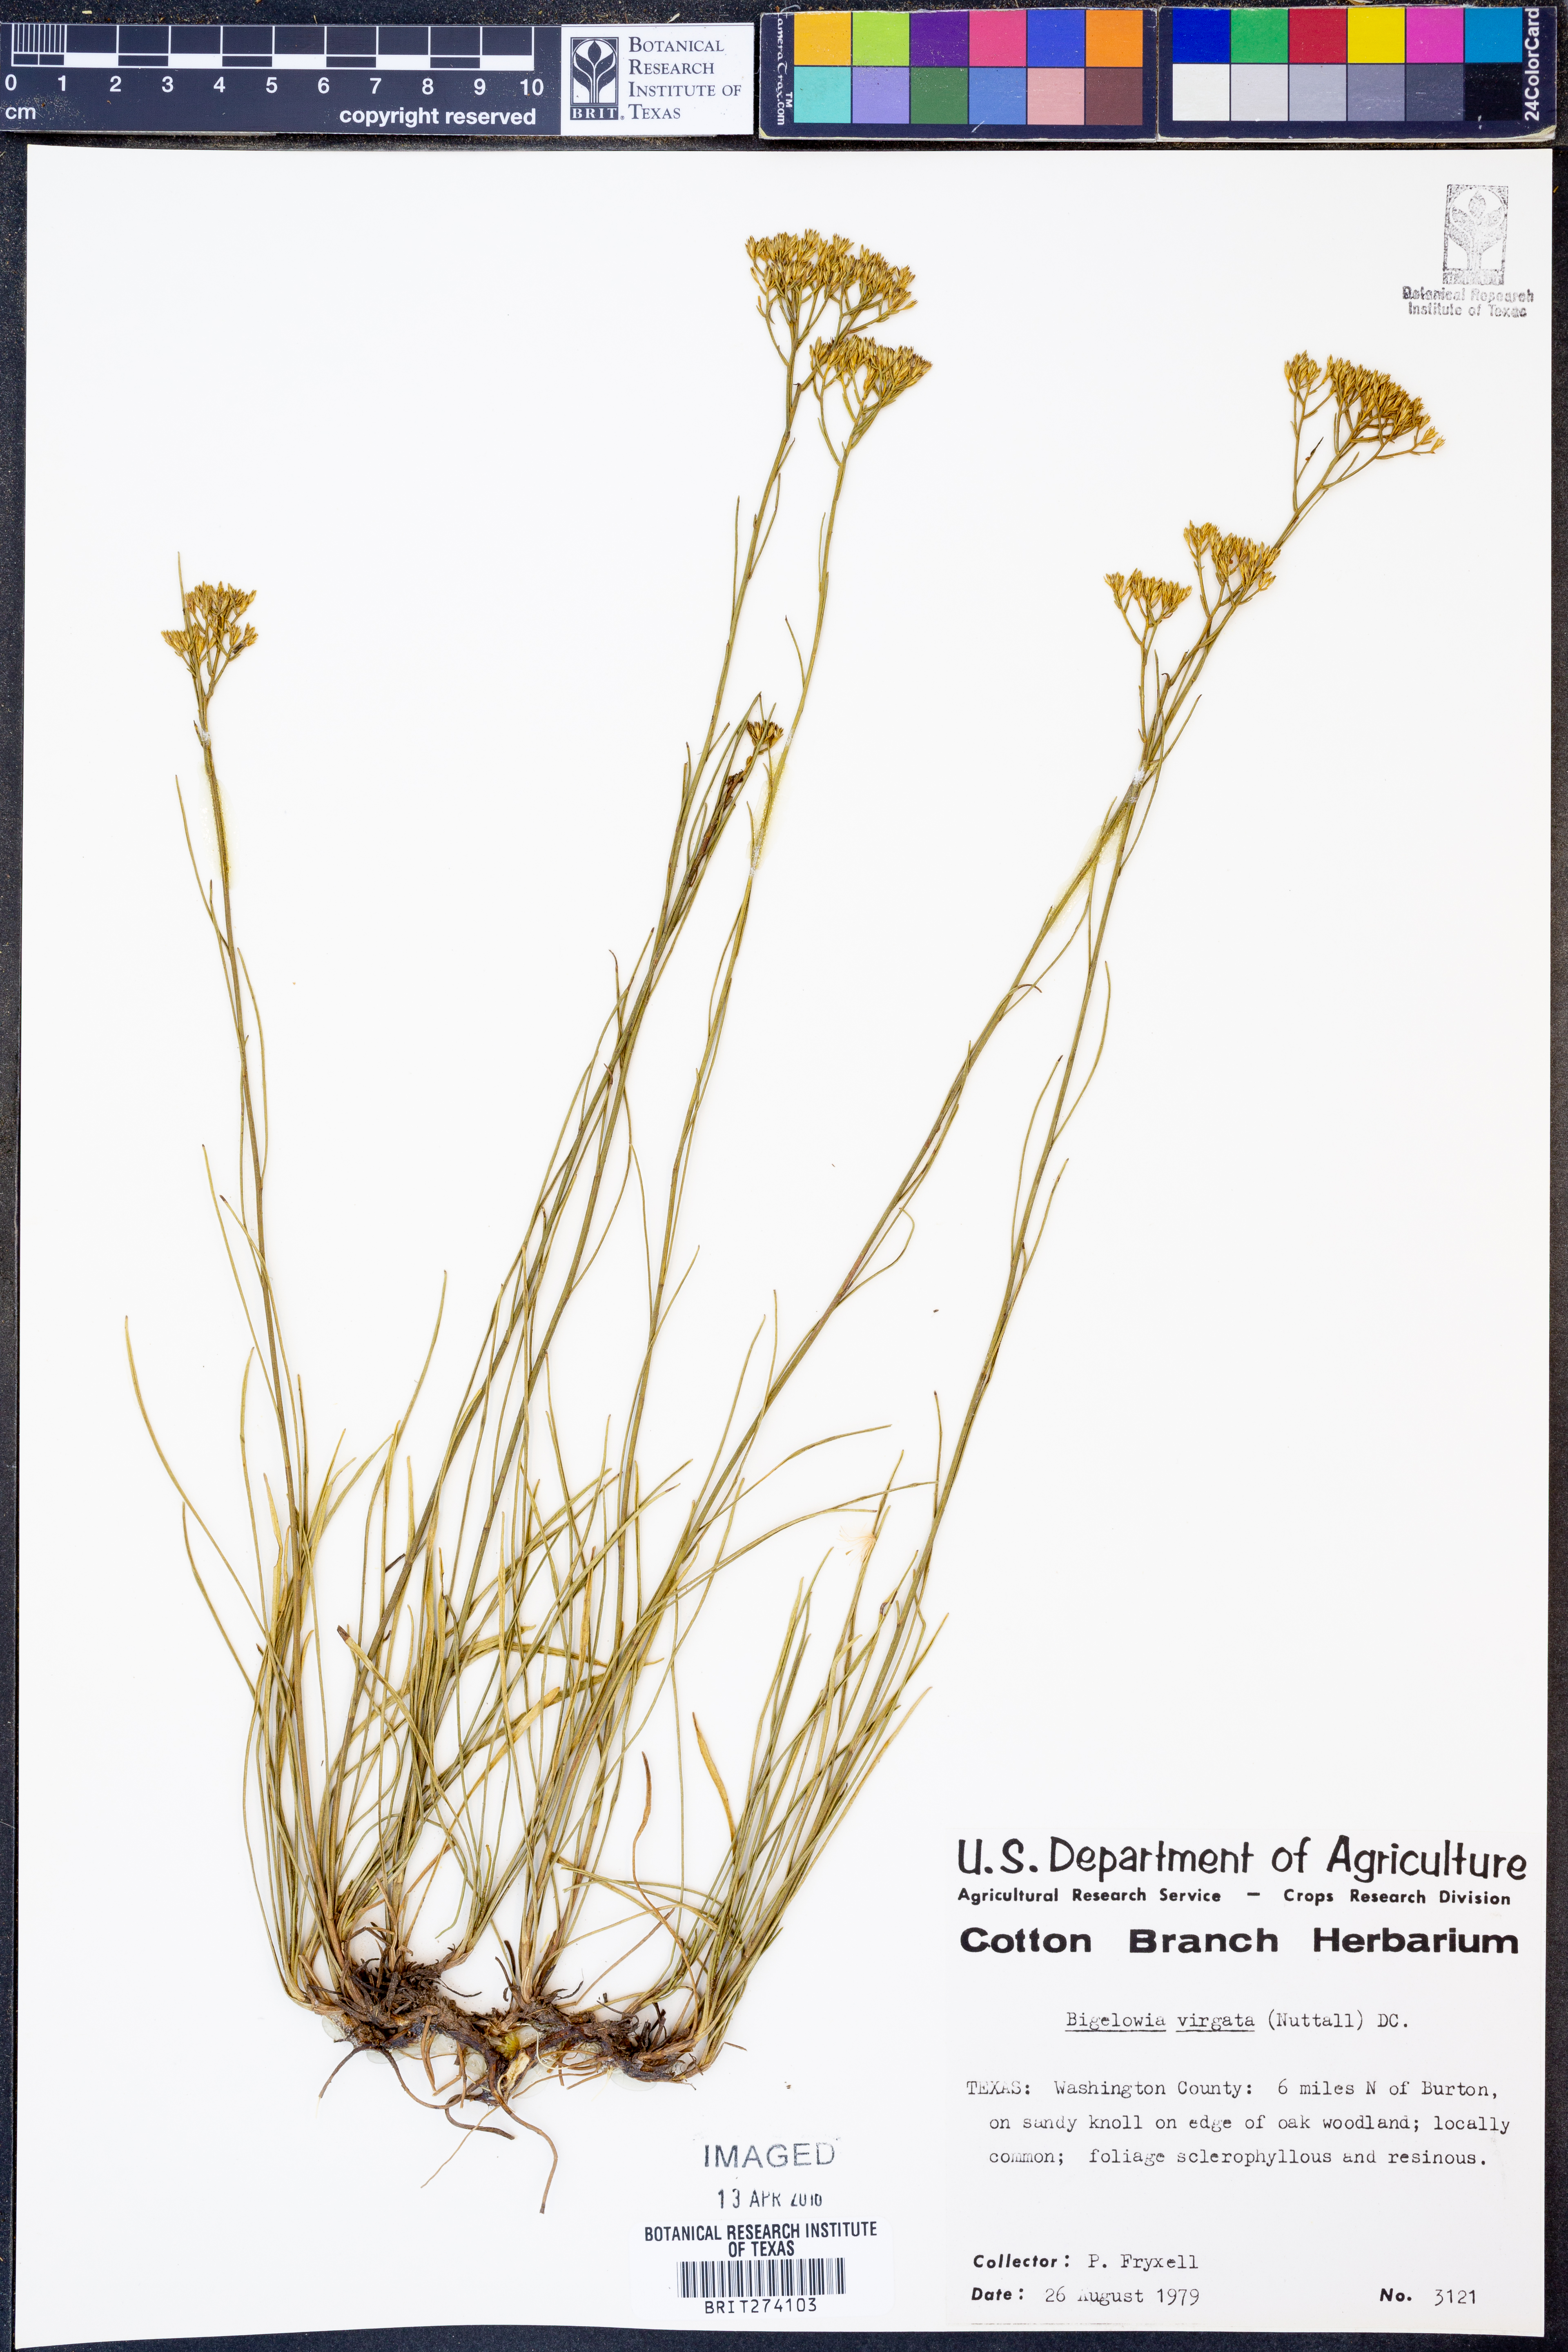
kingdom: Plantae
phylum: Tracheophyta
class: Magnoliopsida
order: Asterales
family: Asteraceae
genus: Bigelowia
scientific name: Bigelowia nudata
